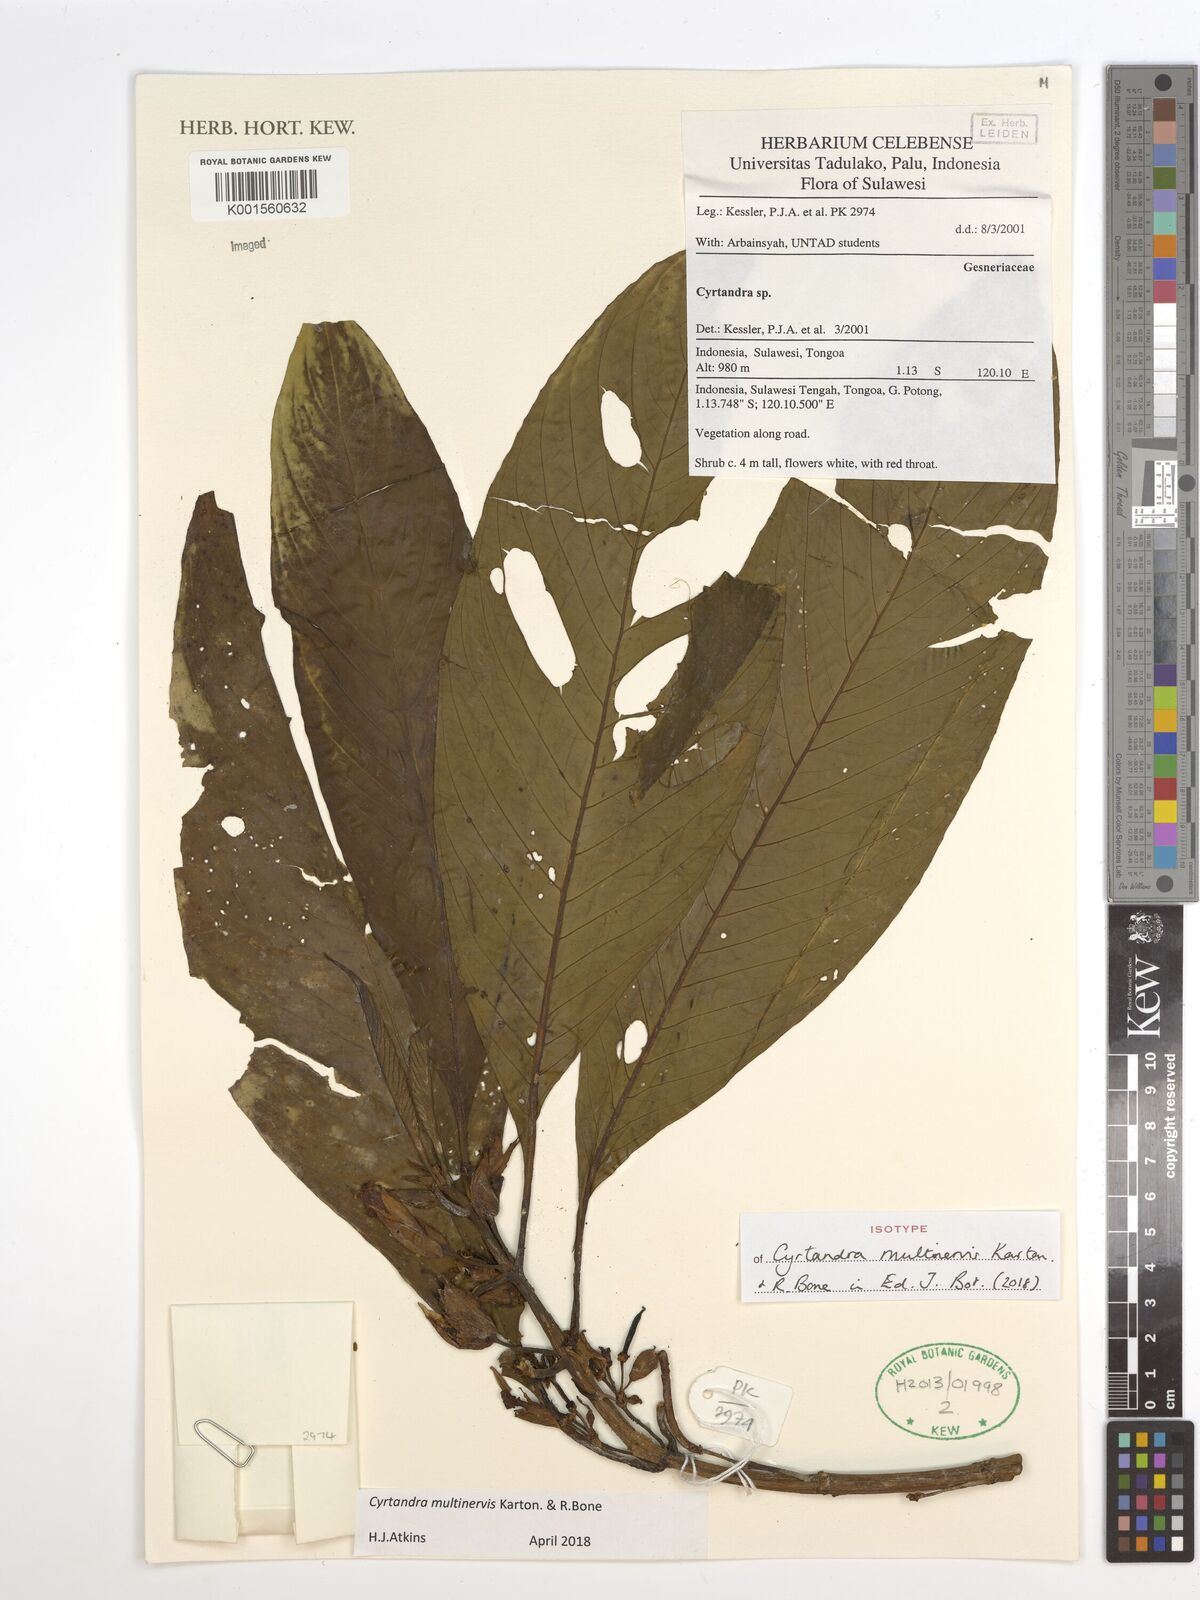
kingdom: Plantae
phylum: Tracheophyta
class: Magnoliopsida
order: Lamiales
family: Gesneriaceae
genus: Cyrtandra
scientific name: Cyrtandra multinervis
